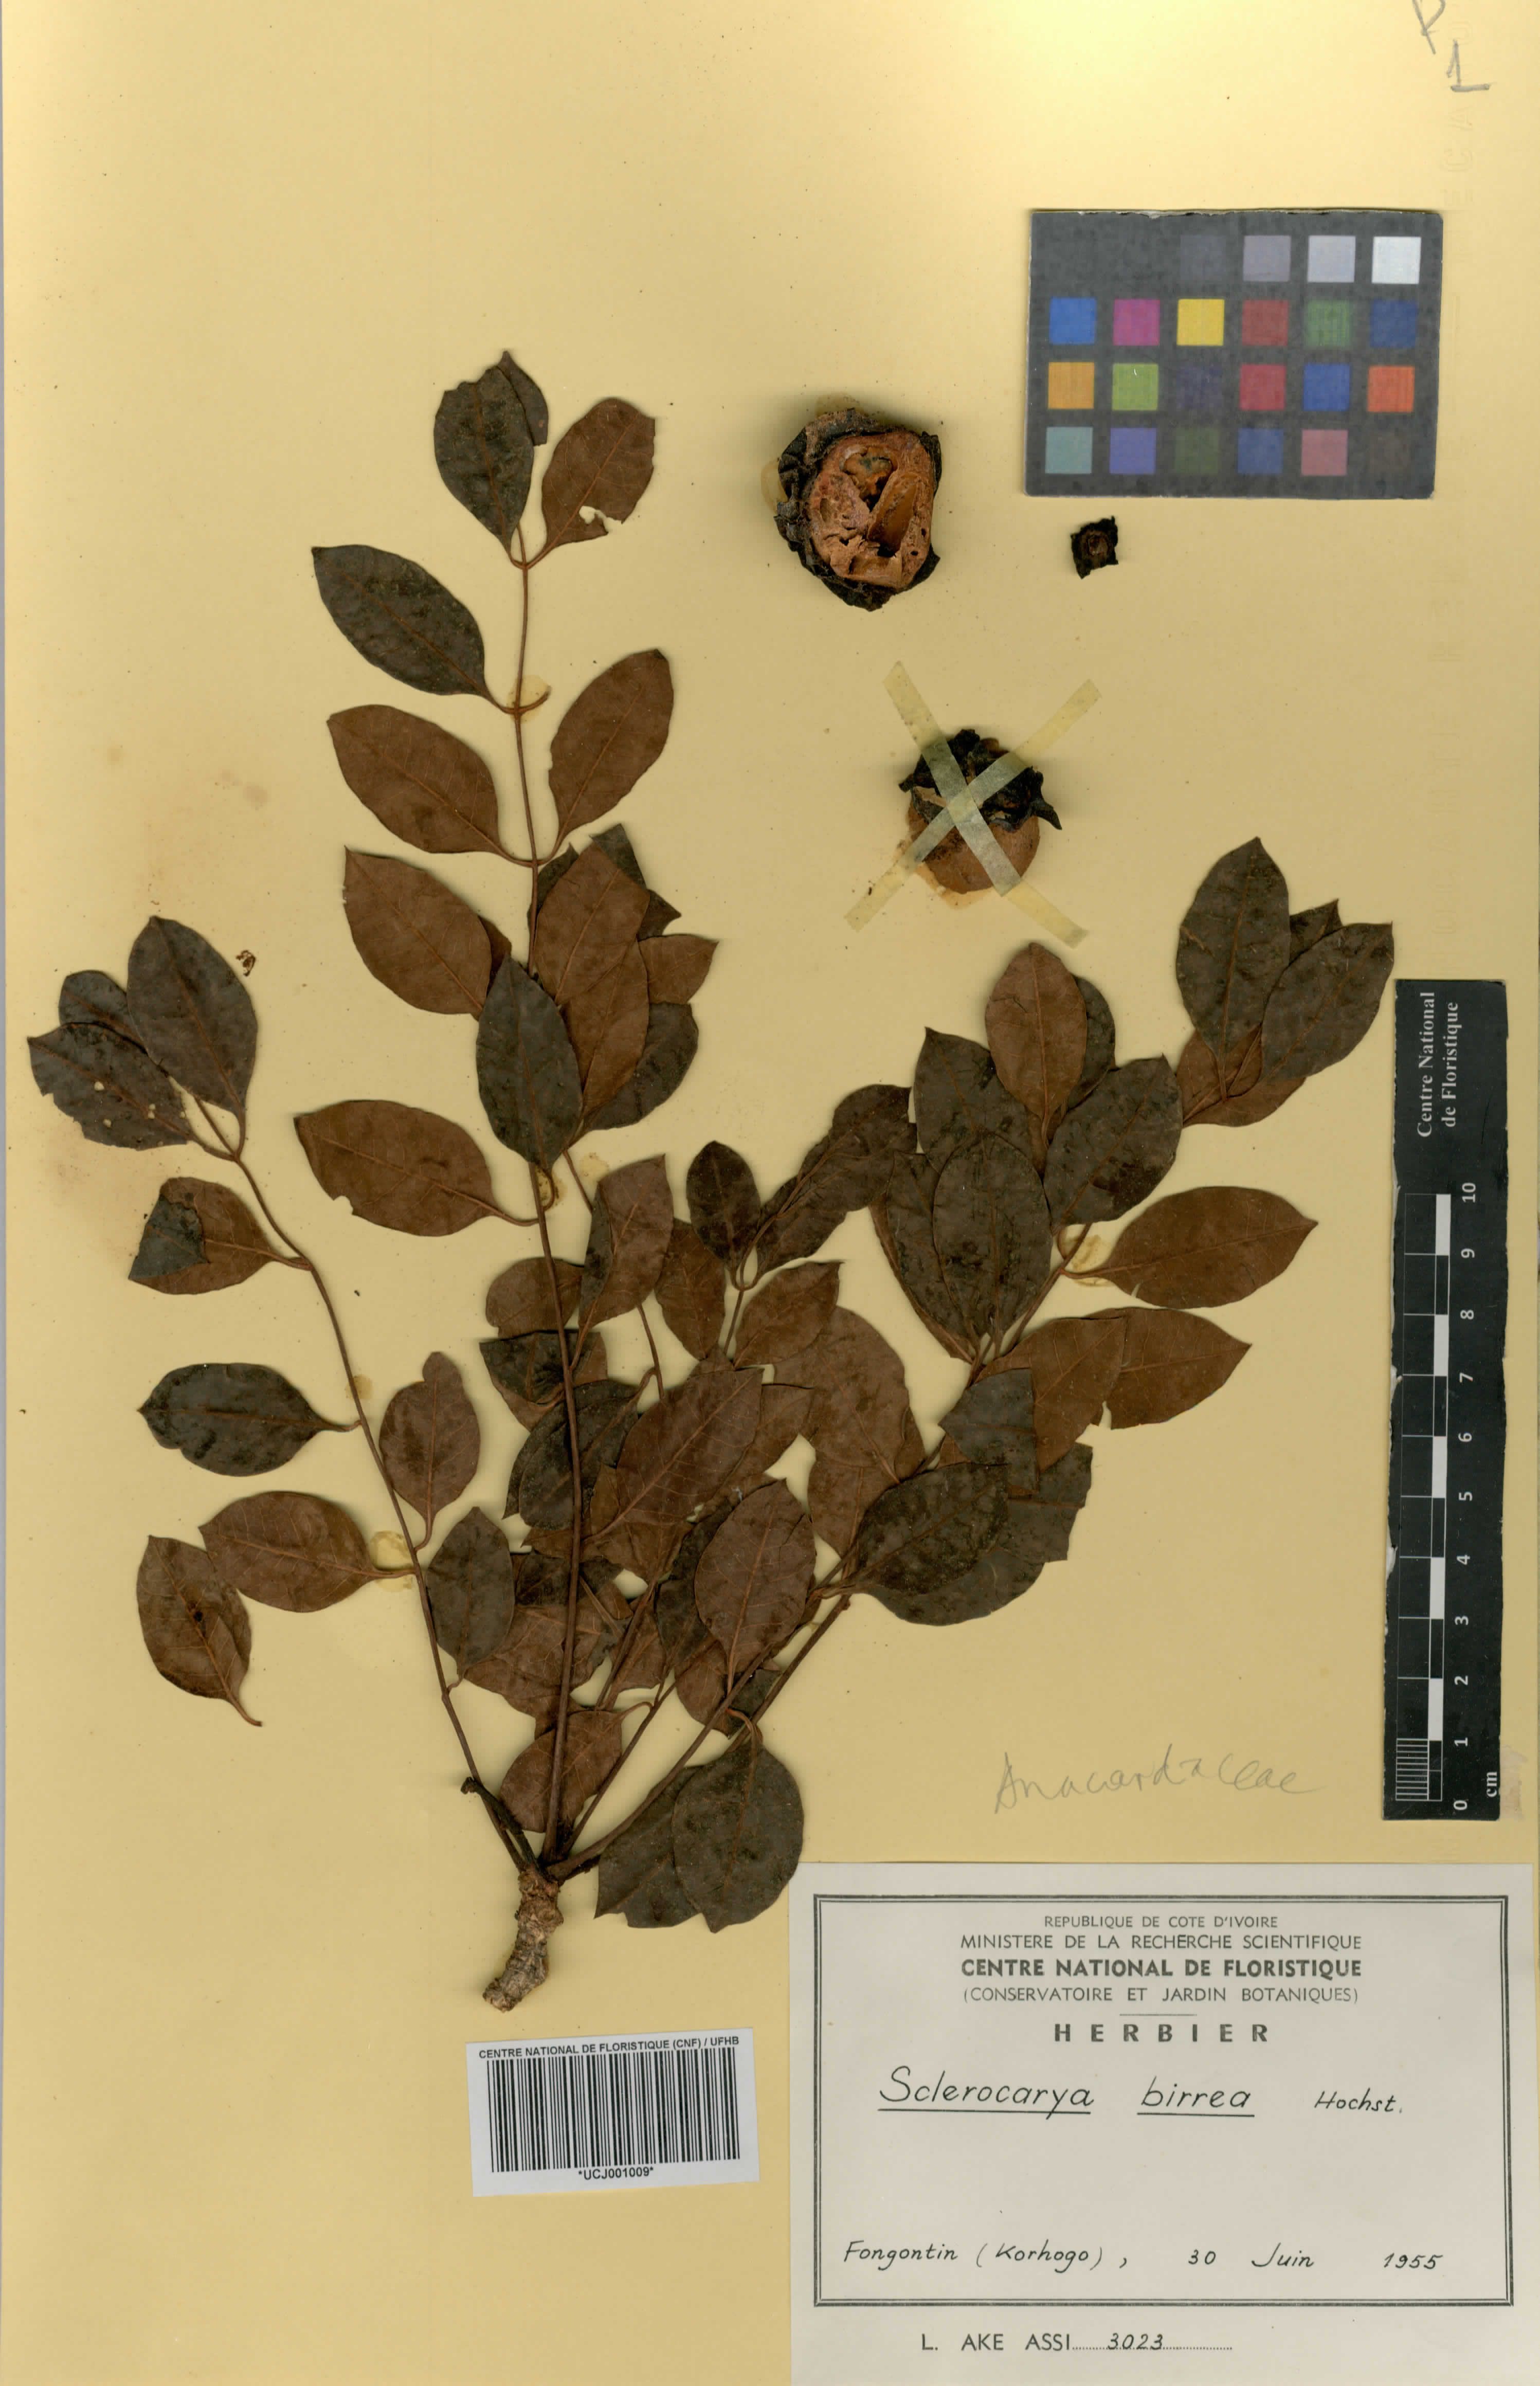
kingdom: Plantae
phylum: Tracheophyta
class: Magnoliopsida
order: Sapindales
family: Anacardiaceae
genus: Sclerocarya
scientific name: Sclerocarya birrea
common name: Marula
